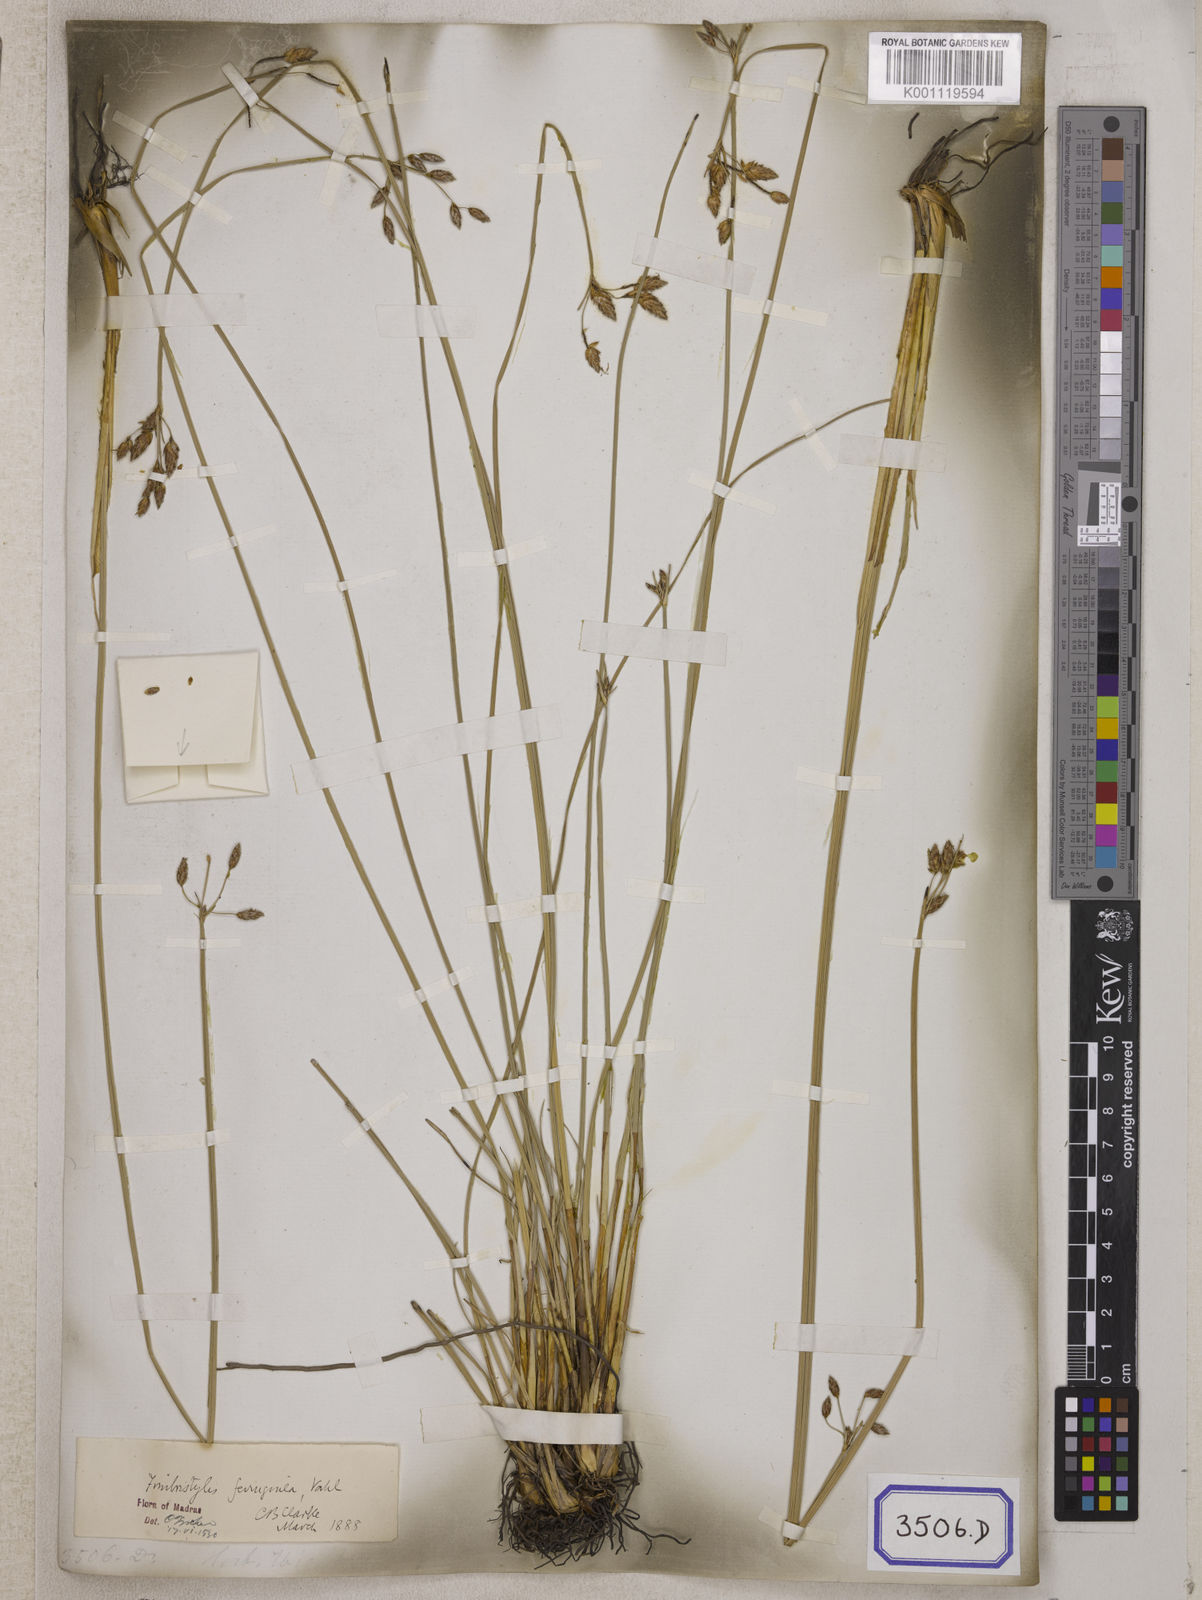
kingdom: Plantae
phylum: Tracheophyta
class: Liliopsida
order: Poales
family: Cyperaceae
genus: Fimbristylis
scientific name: Fimbristylis
